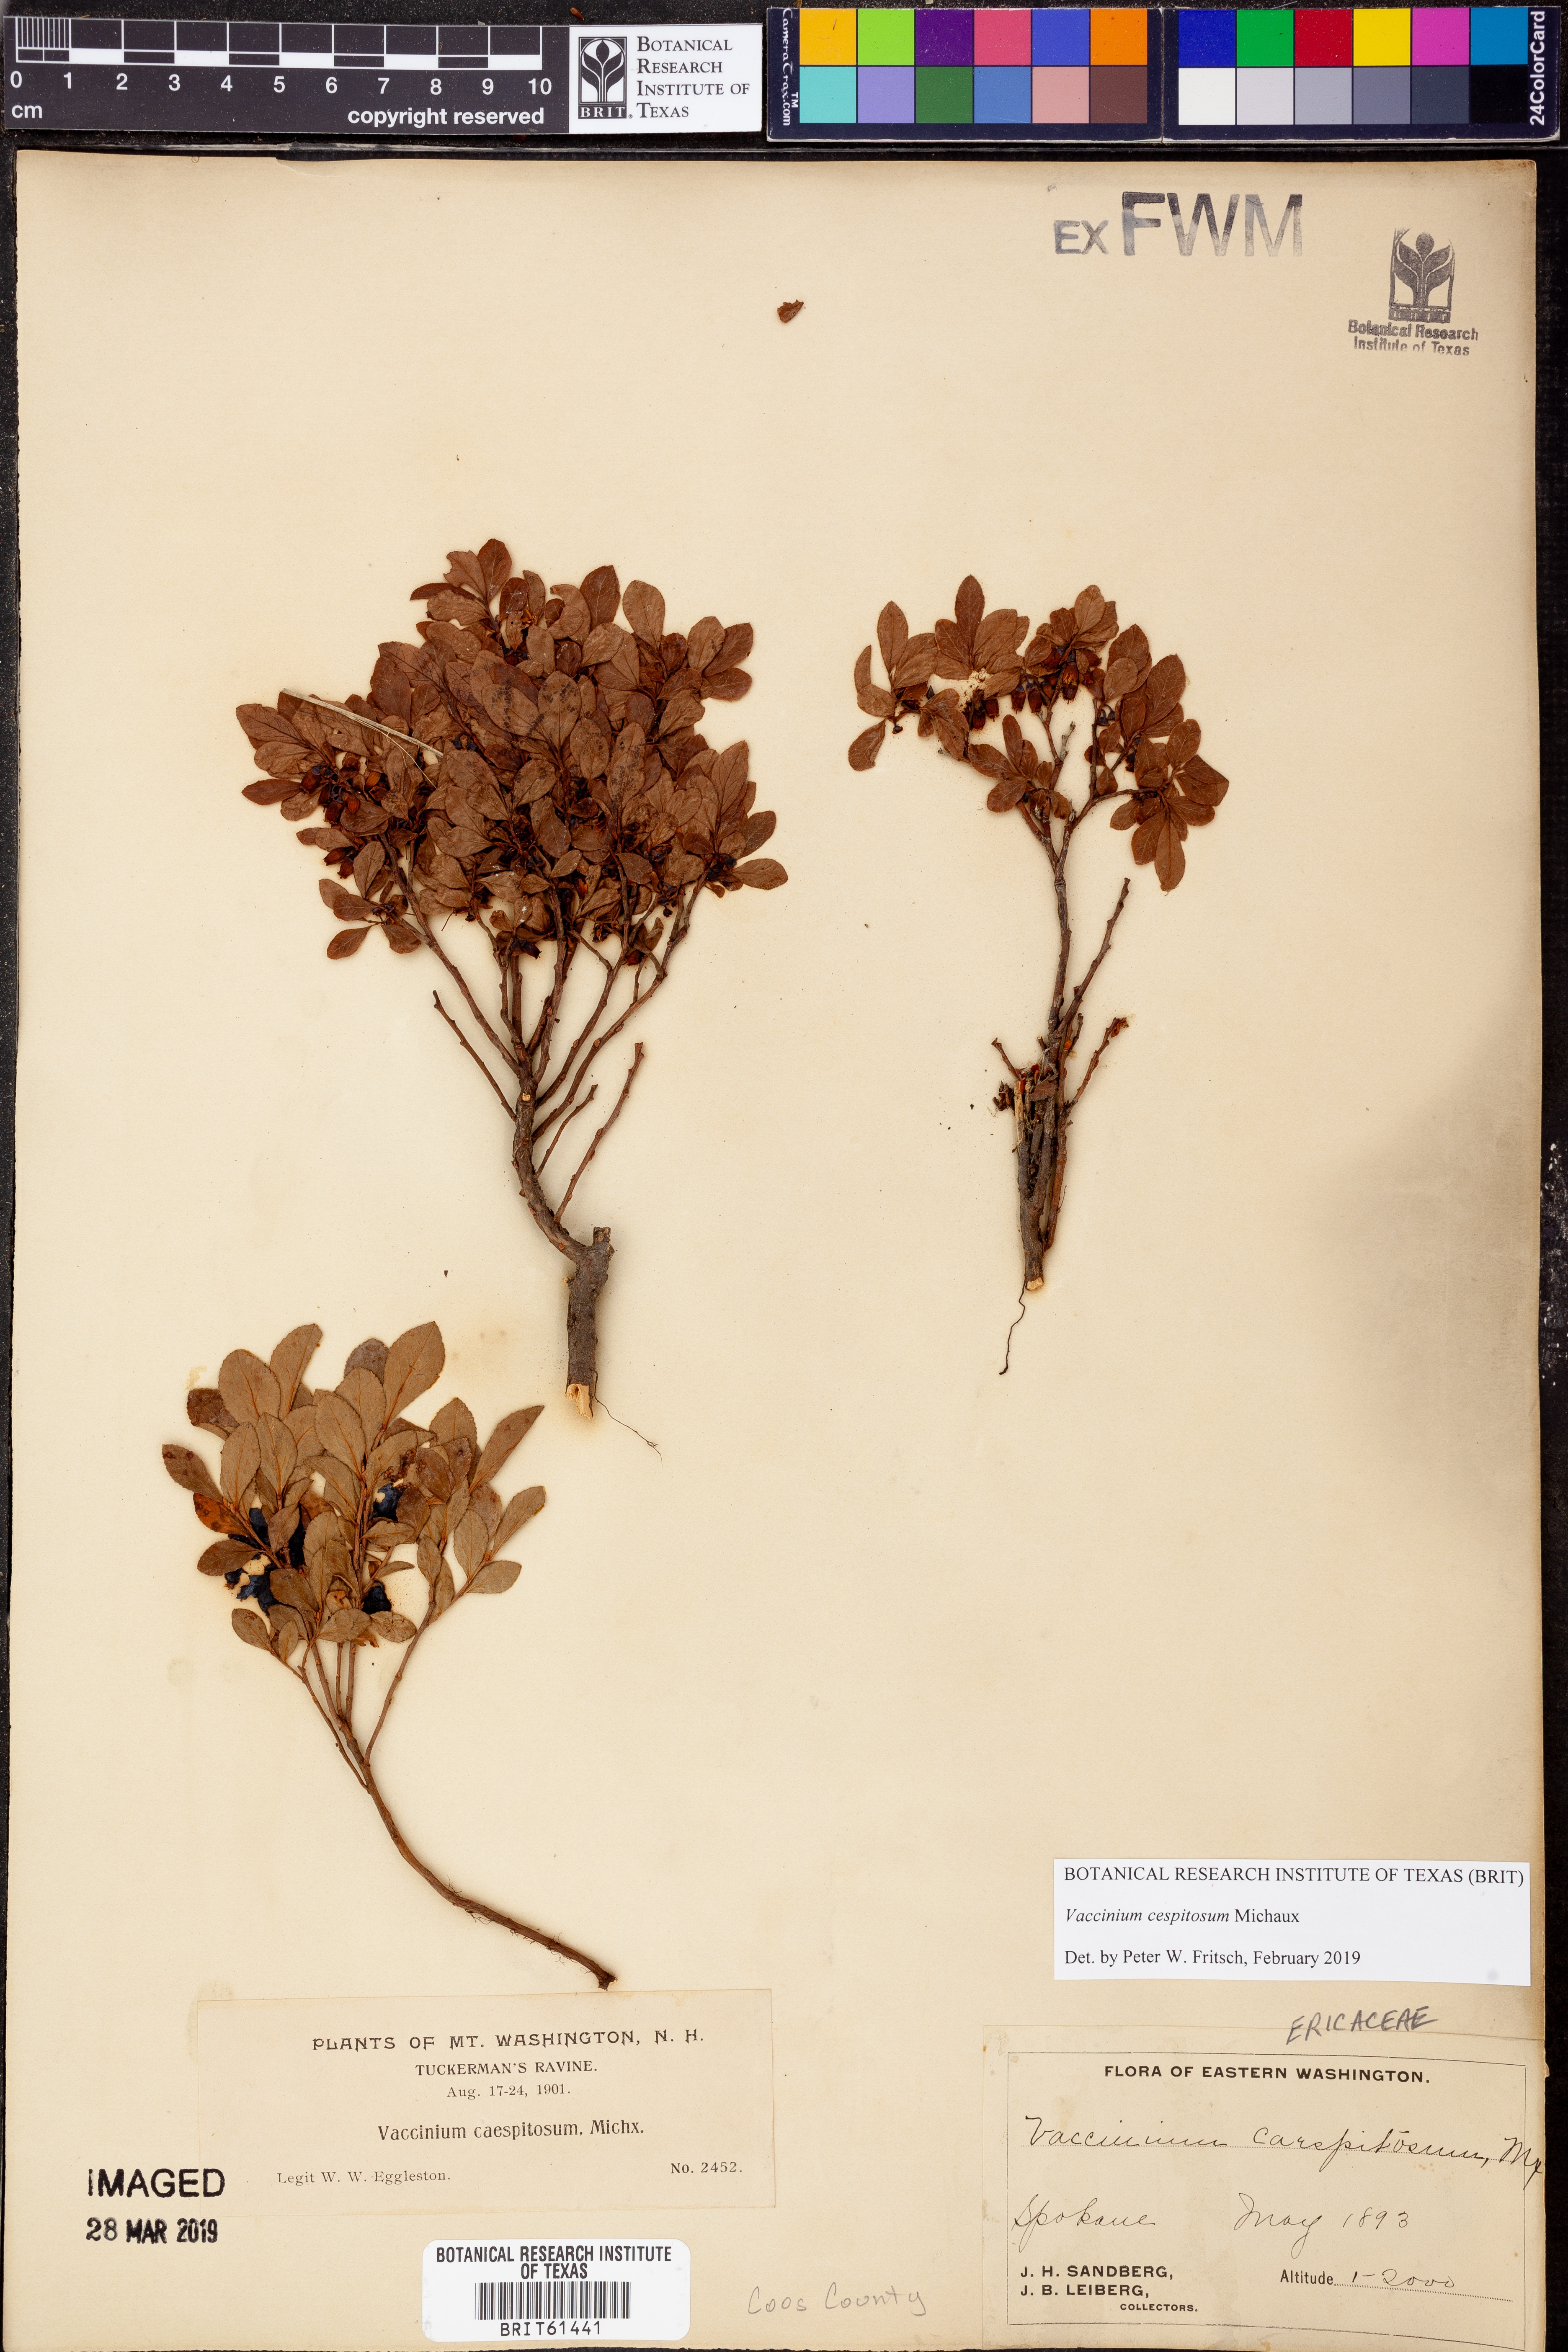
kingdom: Plantae
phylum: Tracheophyta
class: Magnoliopsida
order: Ericales
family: Ericaceae
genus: Vaccinium
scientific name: Vaccinium cespitosum
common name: Dwarf bilberry
